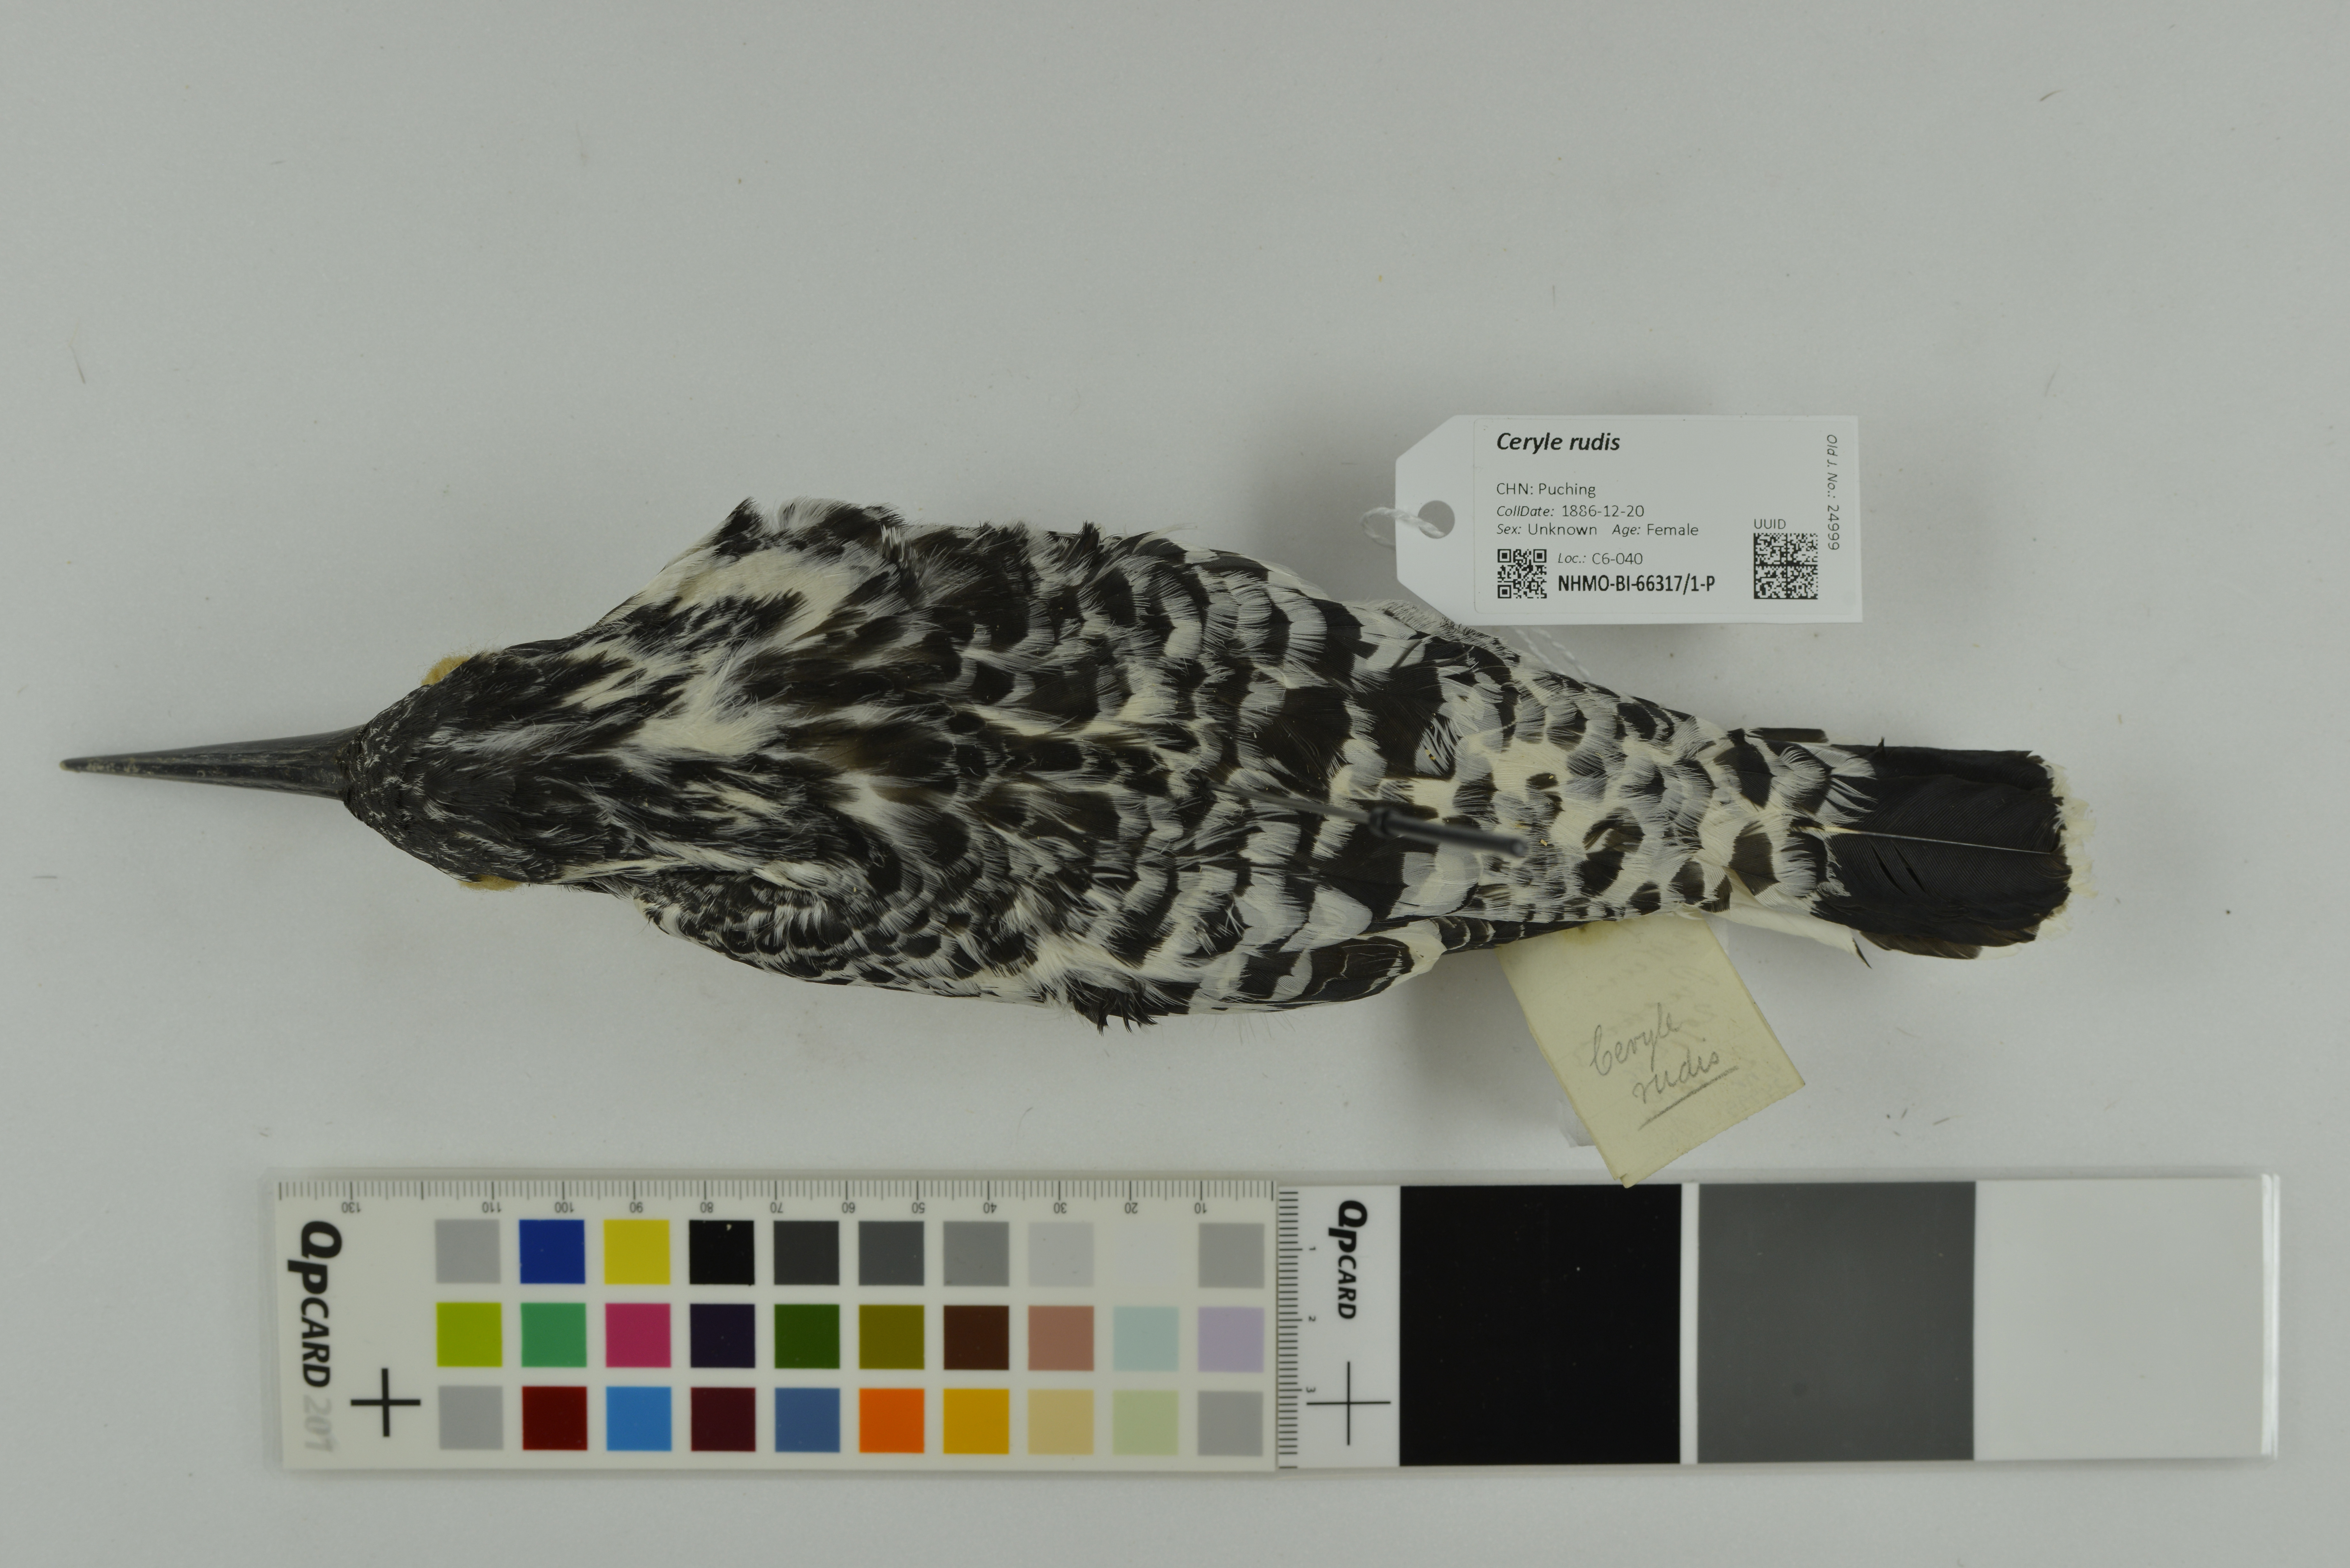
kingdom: Animalia
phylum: Chordata
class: Aves
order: Coraciiformes
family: Alcedinidae
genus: Ceryle
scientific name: Ceryle rudis
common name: Pied kingfisher
